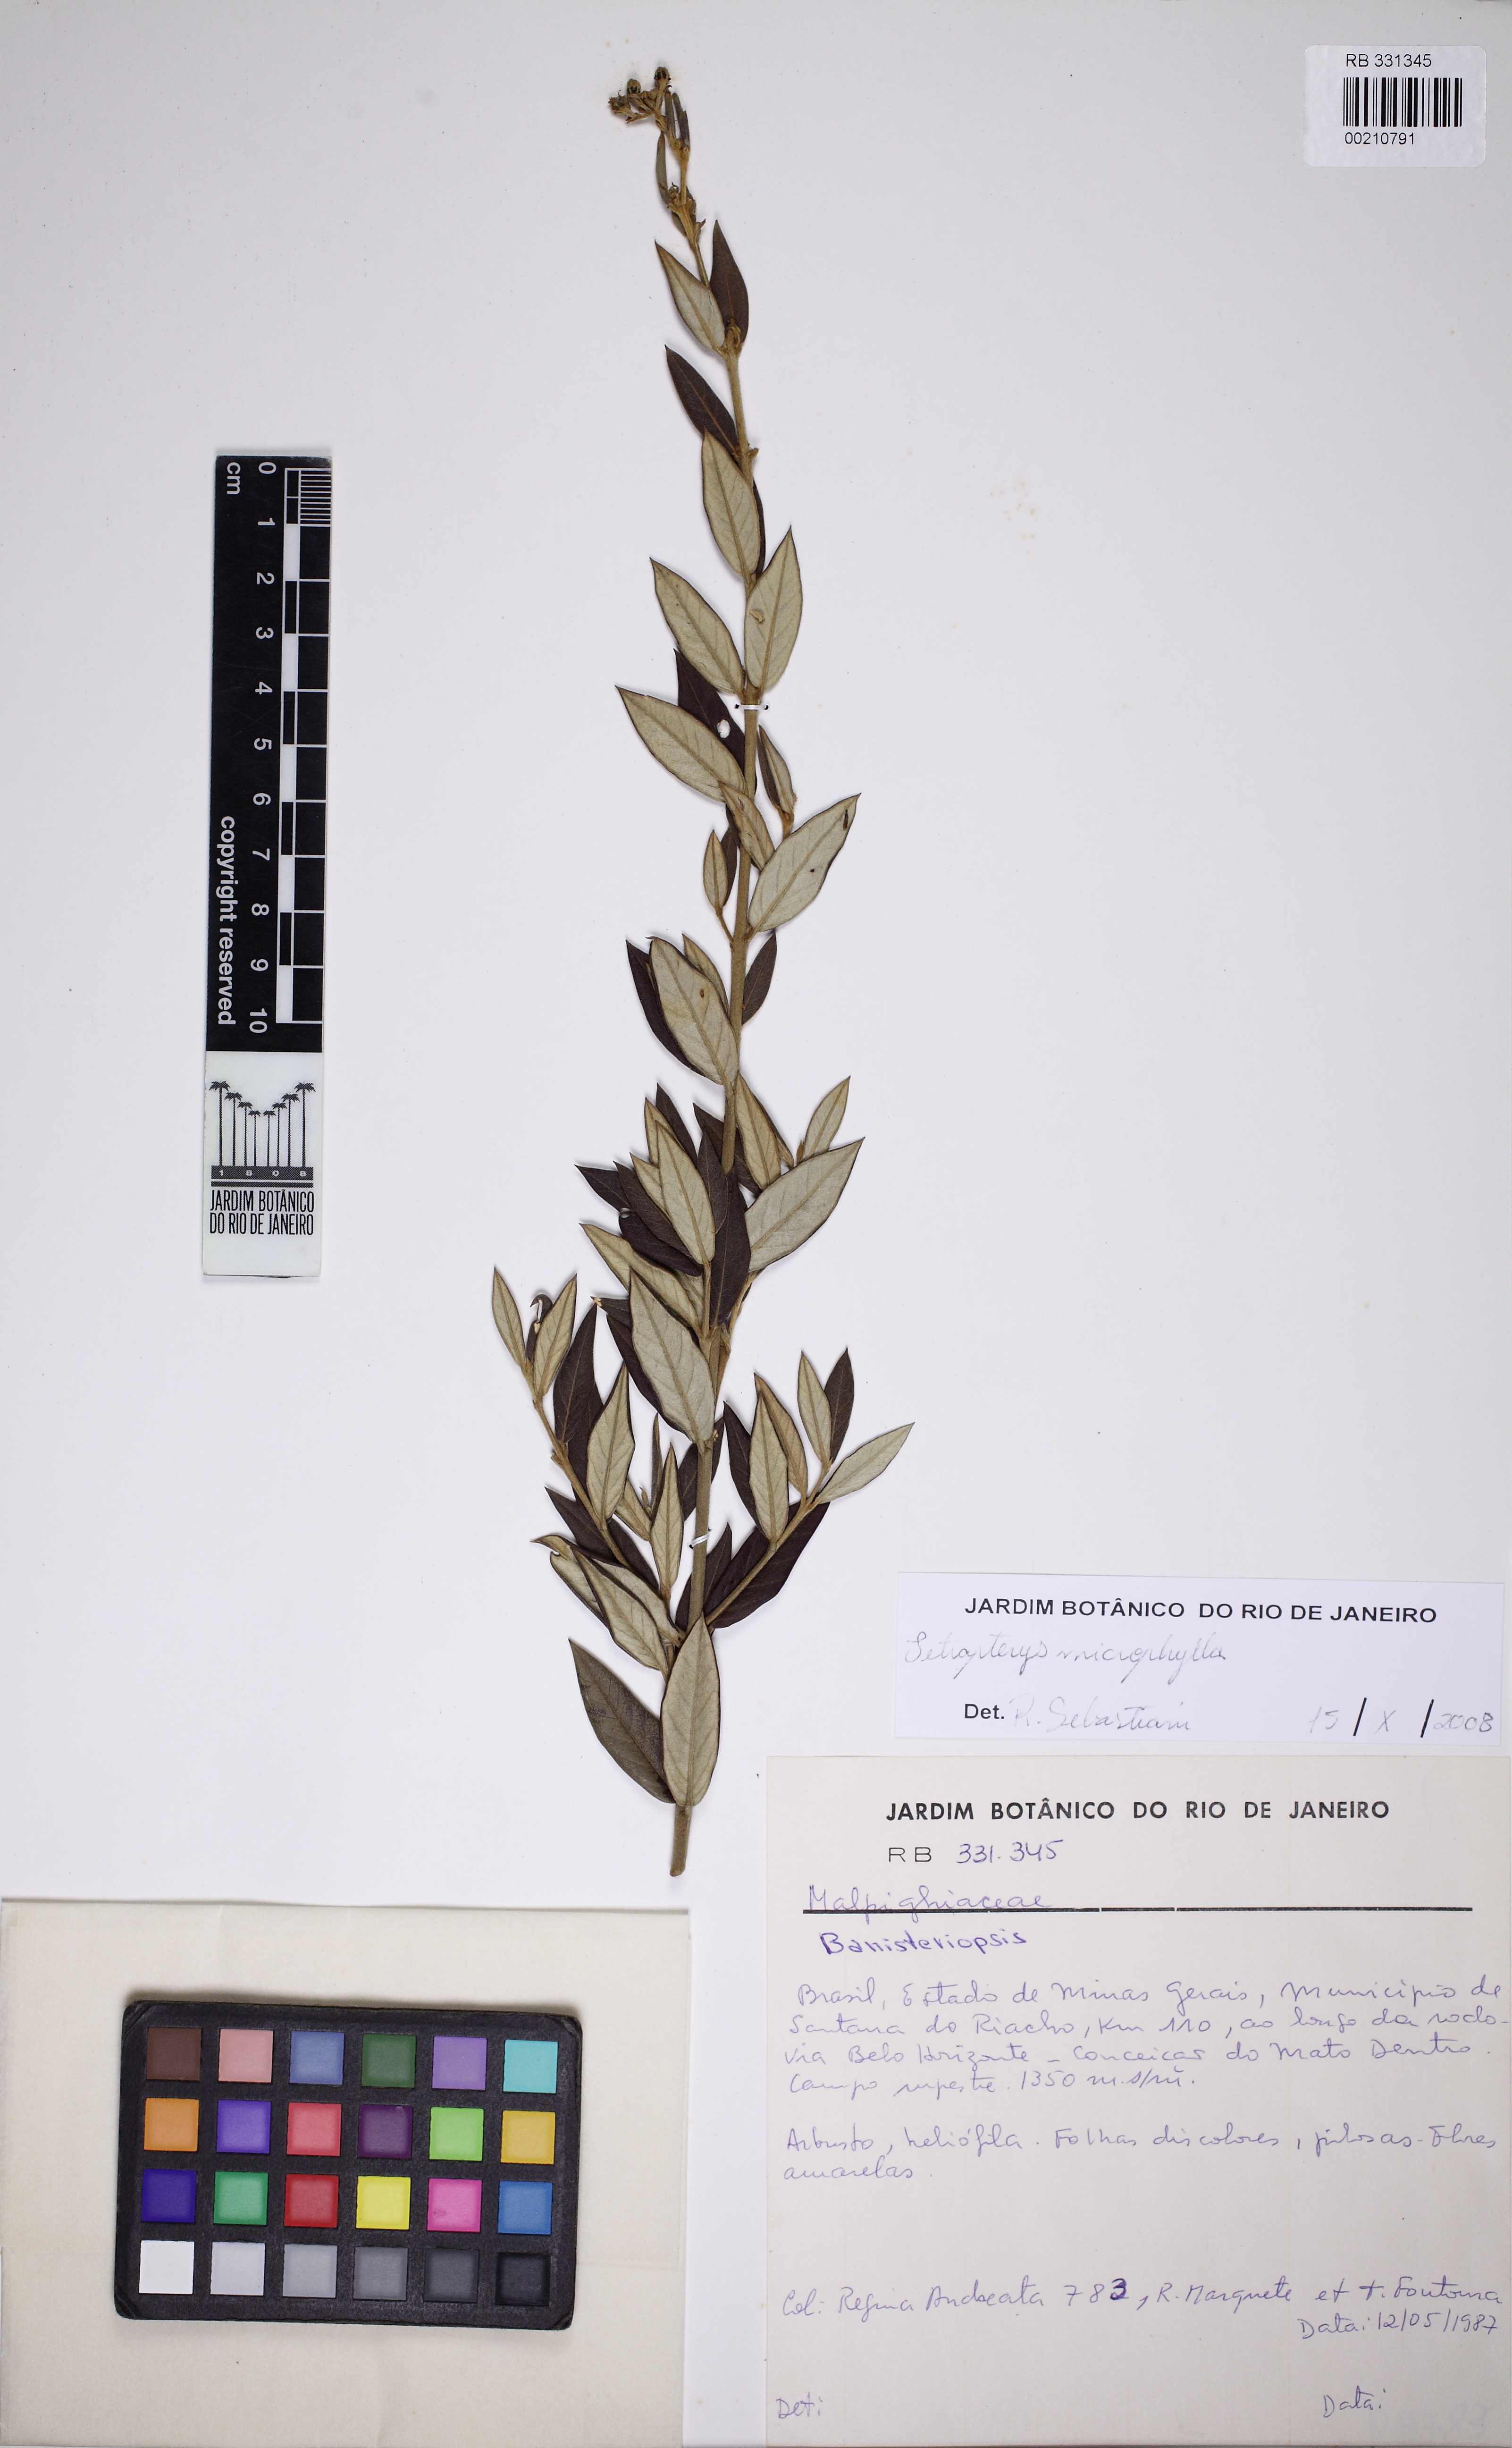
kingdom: Plantae
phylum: Tracheophyta
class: Magnoliopsida
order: Malpighiales
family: Malpighiaceae
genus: Glicophyllum
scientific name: Glicophyllum microphyllum
